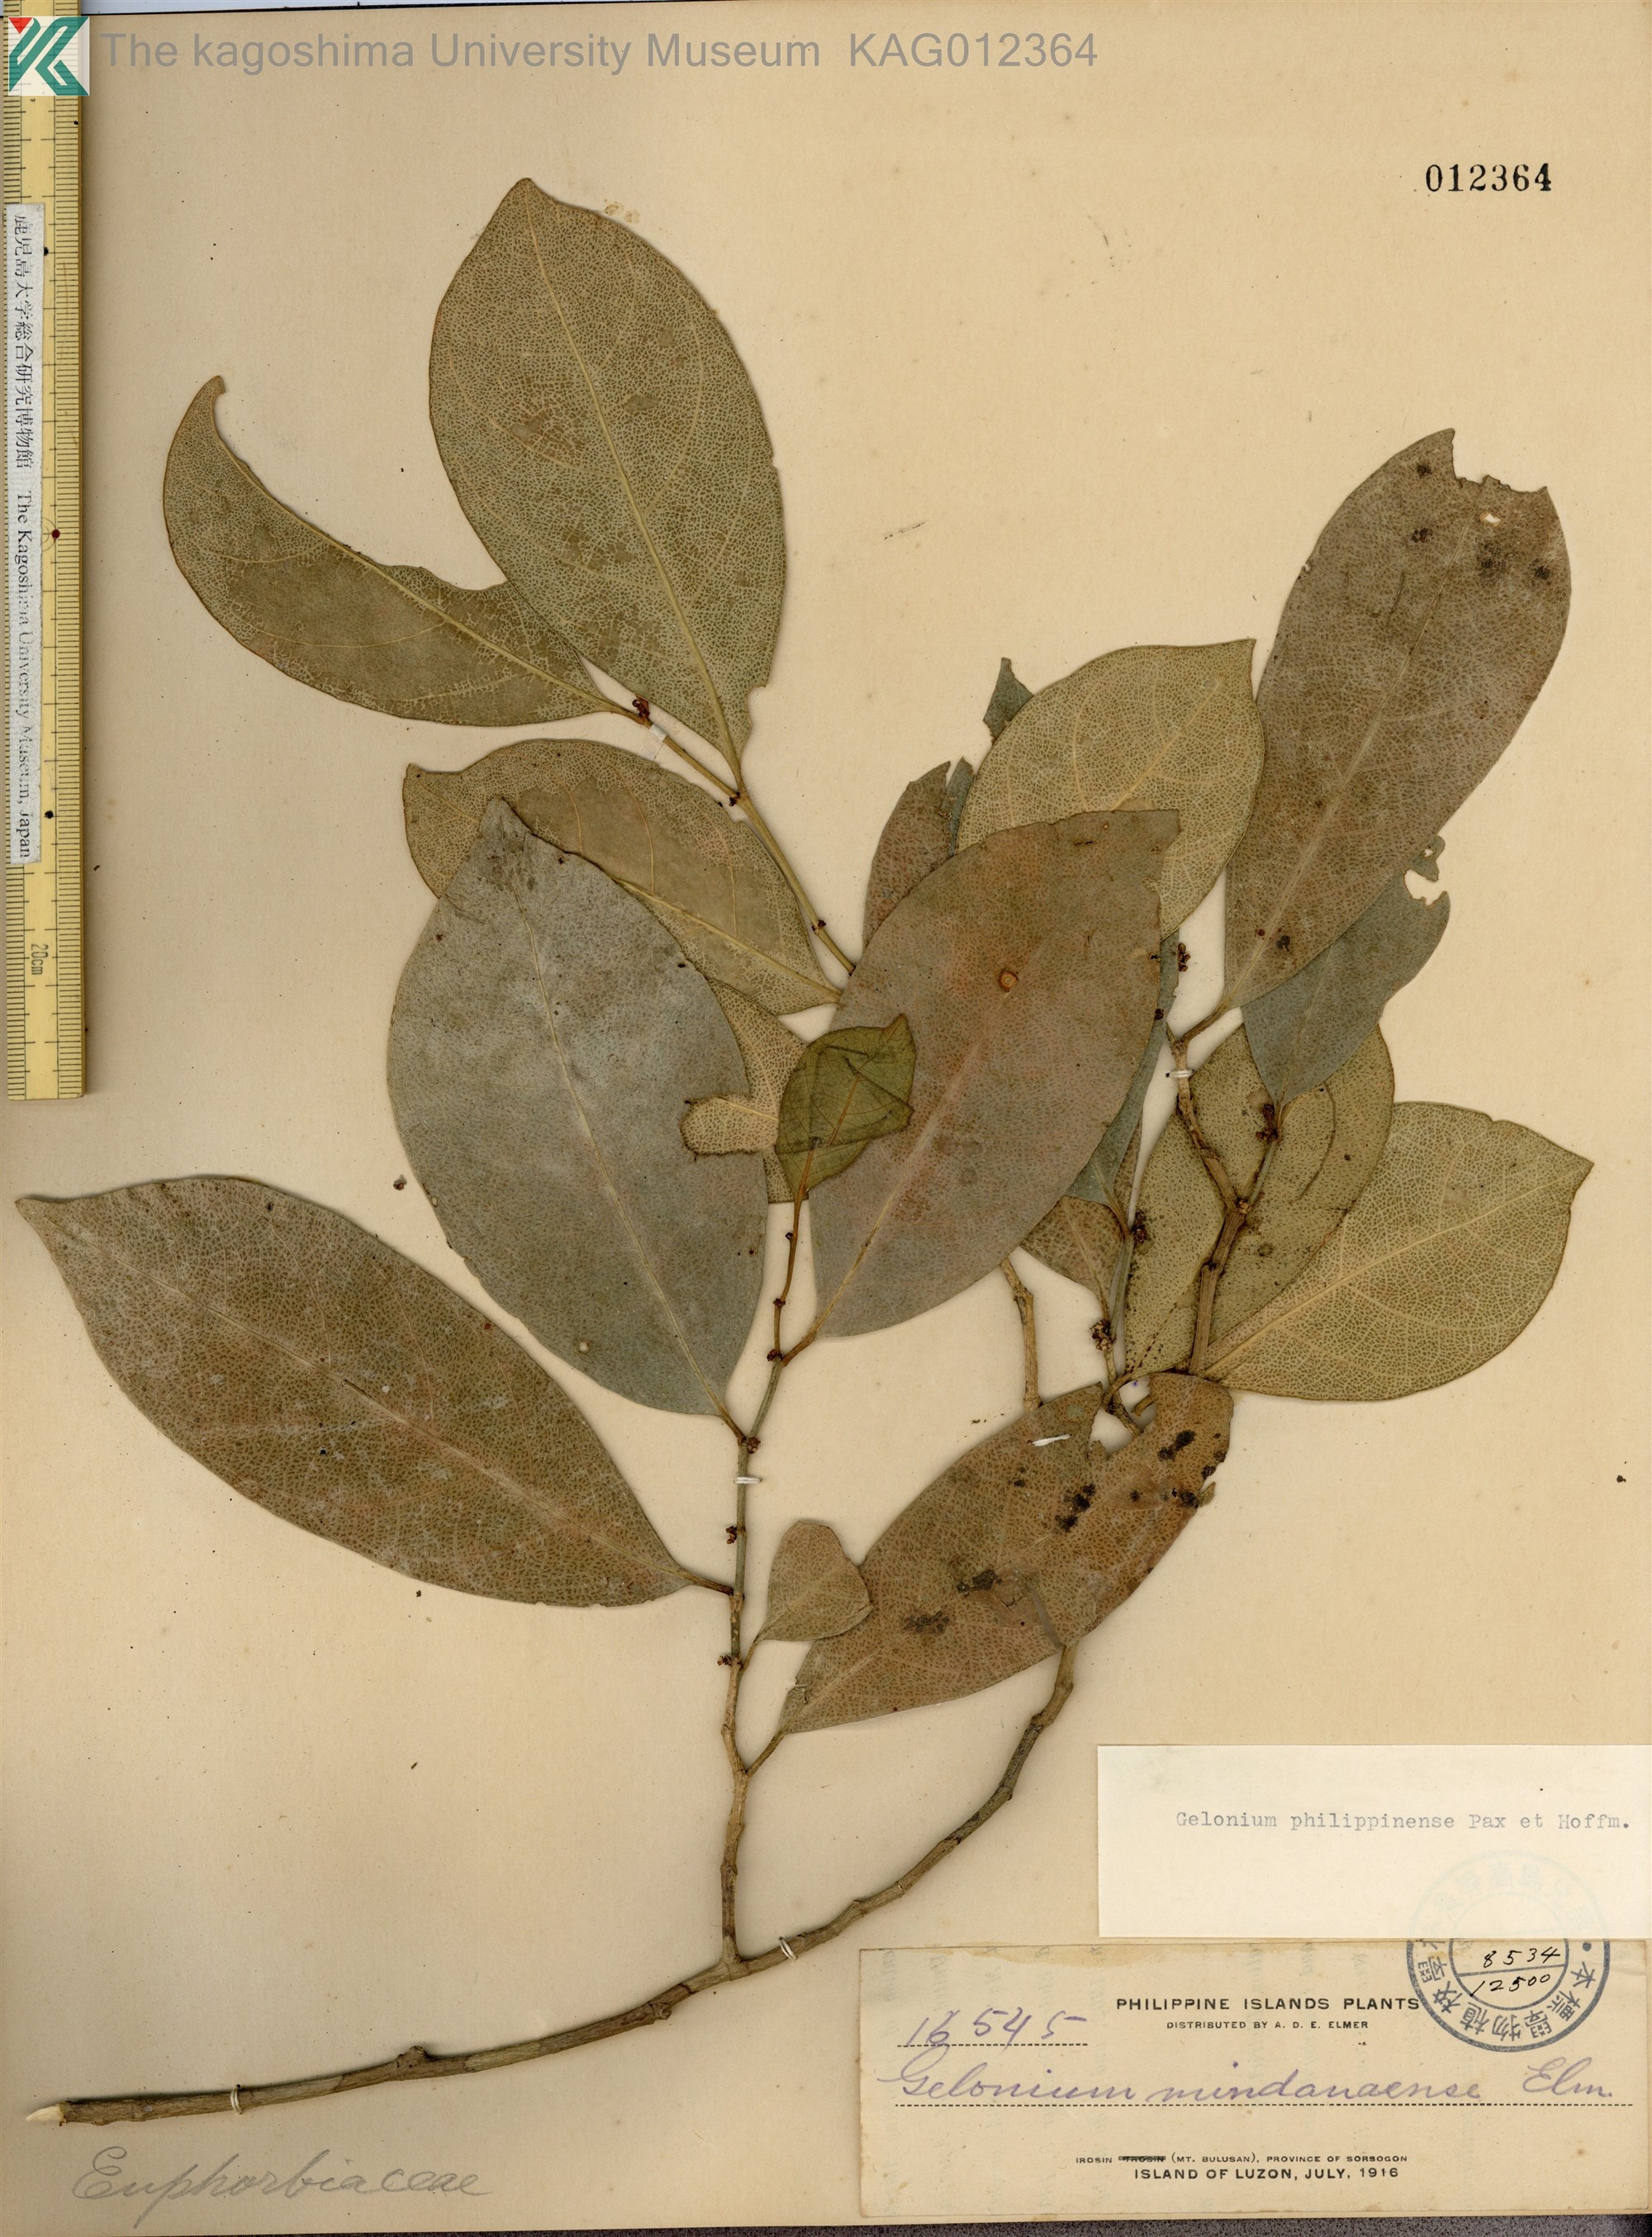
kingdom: Plantae
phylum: Tracheophyta
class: Magnoliopsida
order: Malpighiales
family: Phyllanthaceae
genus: Glochidion
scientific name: Glochidion philippicum
